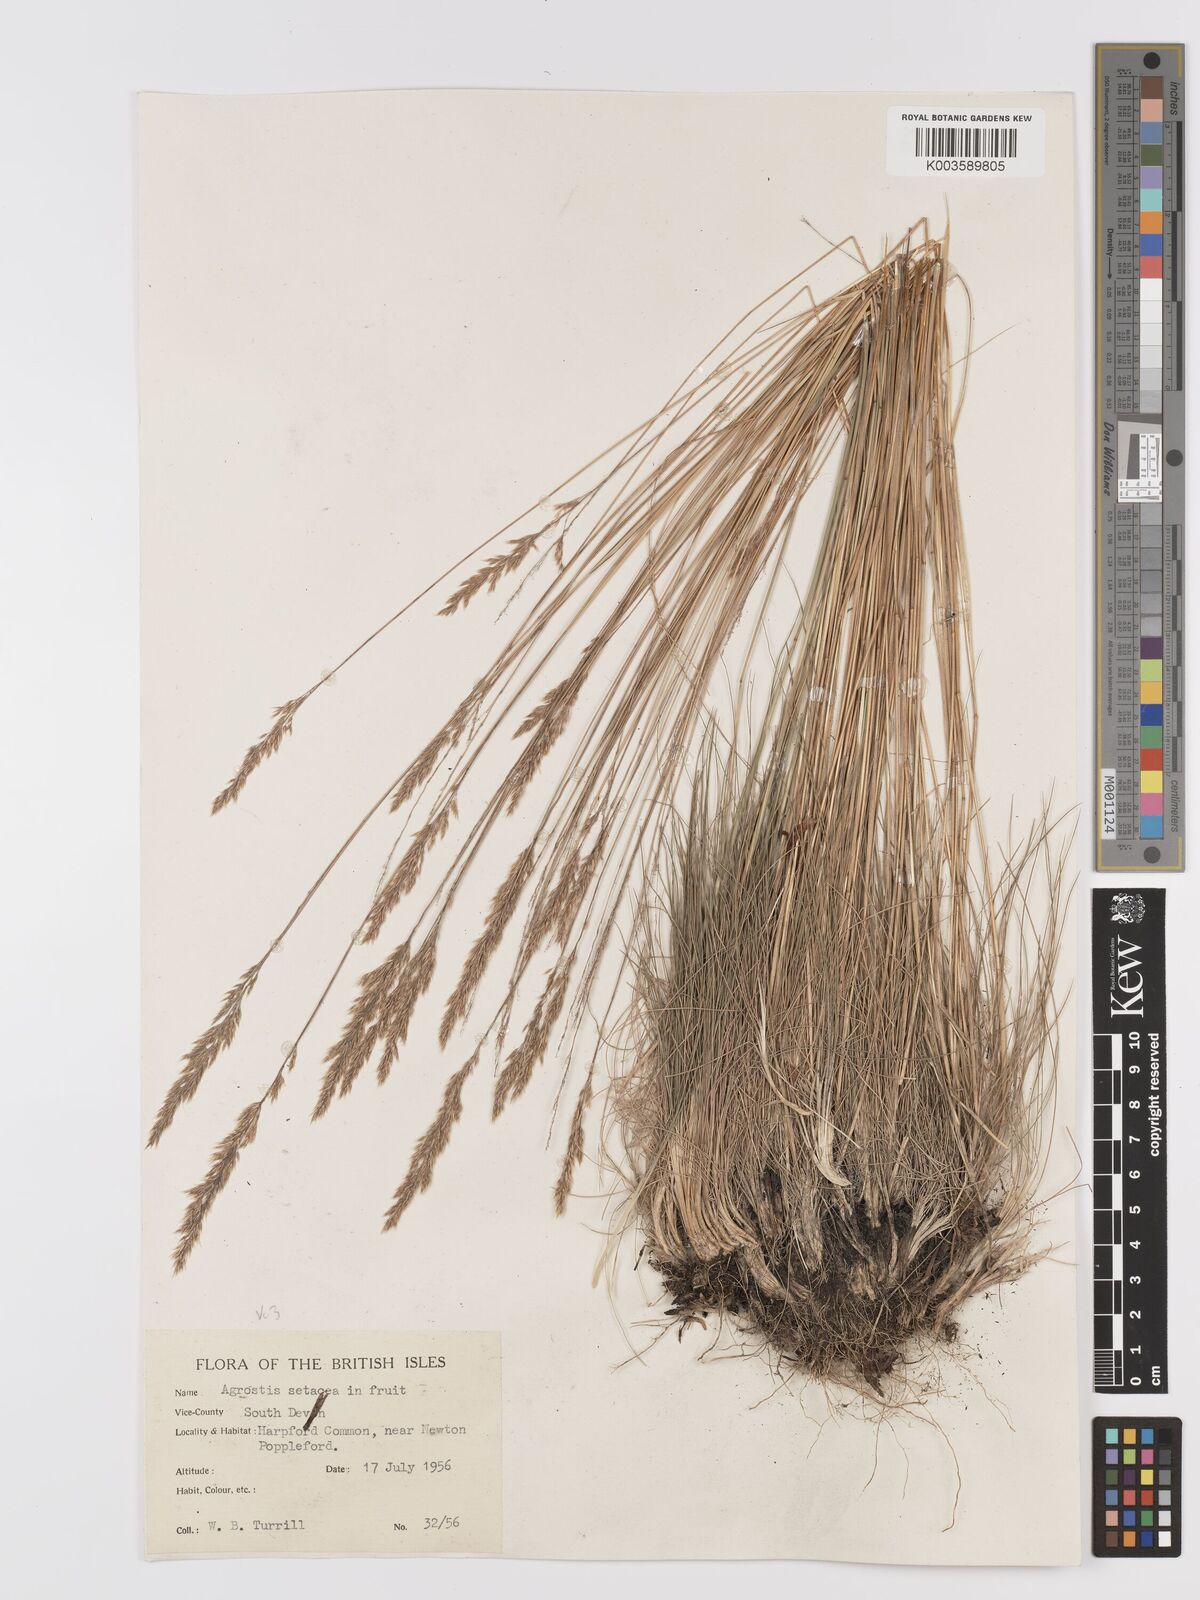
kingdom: Plantae
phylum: Tracheophyta
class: Liliopsida
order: Poales
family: Poaceae
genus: Alpagrostis
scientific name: Alpagrostis setacea
